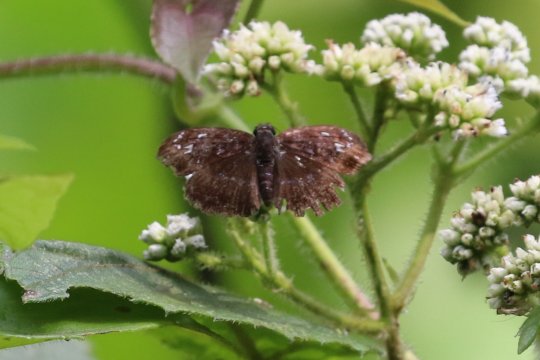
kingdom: Animalia
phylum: Arthropoda
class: Insecta
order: Lepidoptera
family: Hesperiidae
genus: Sophista
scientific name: Sophista grippa
